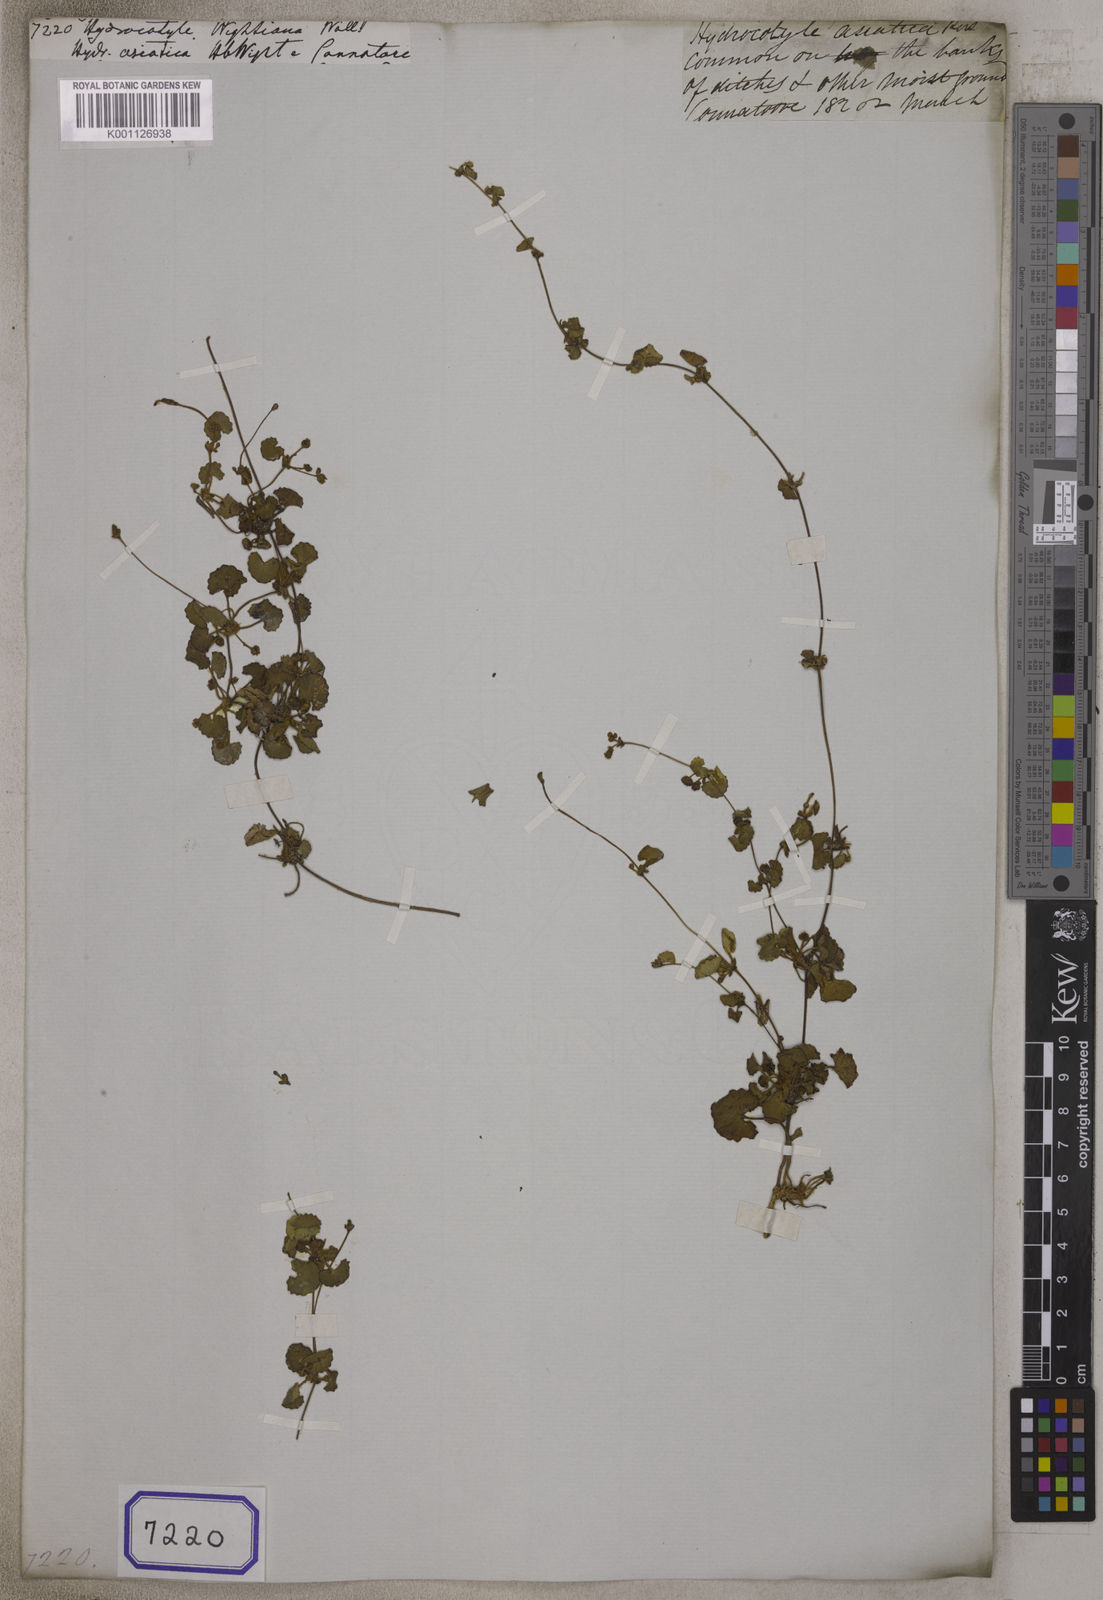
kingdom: Plantae
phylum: Tracheophyta
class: Magnoliopsida
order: Apiales
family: Apiaceae
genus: Centella
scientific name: Centella asiatica
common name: Spadeleaf
